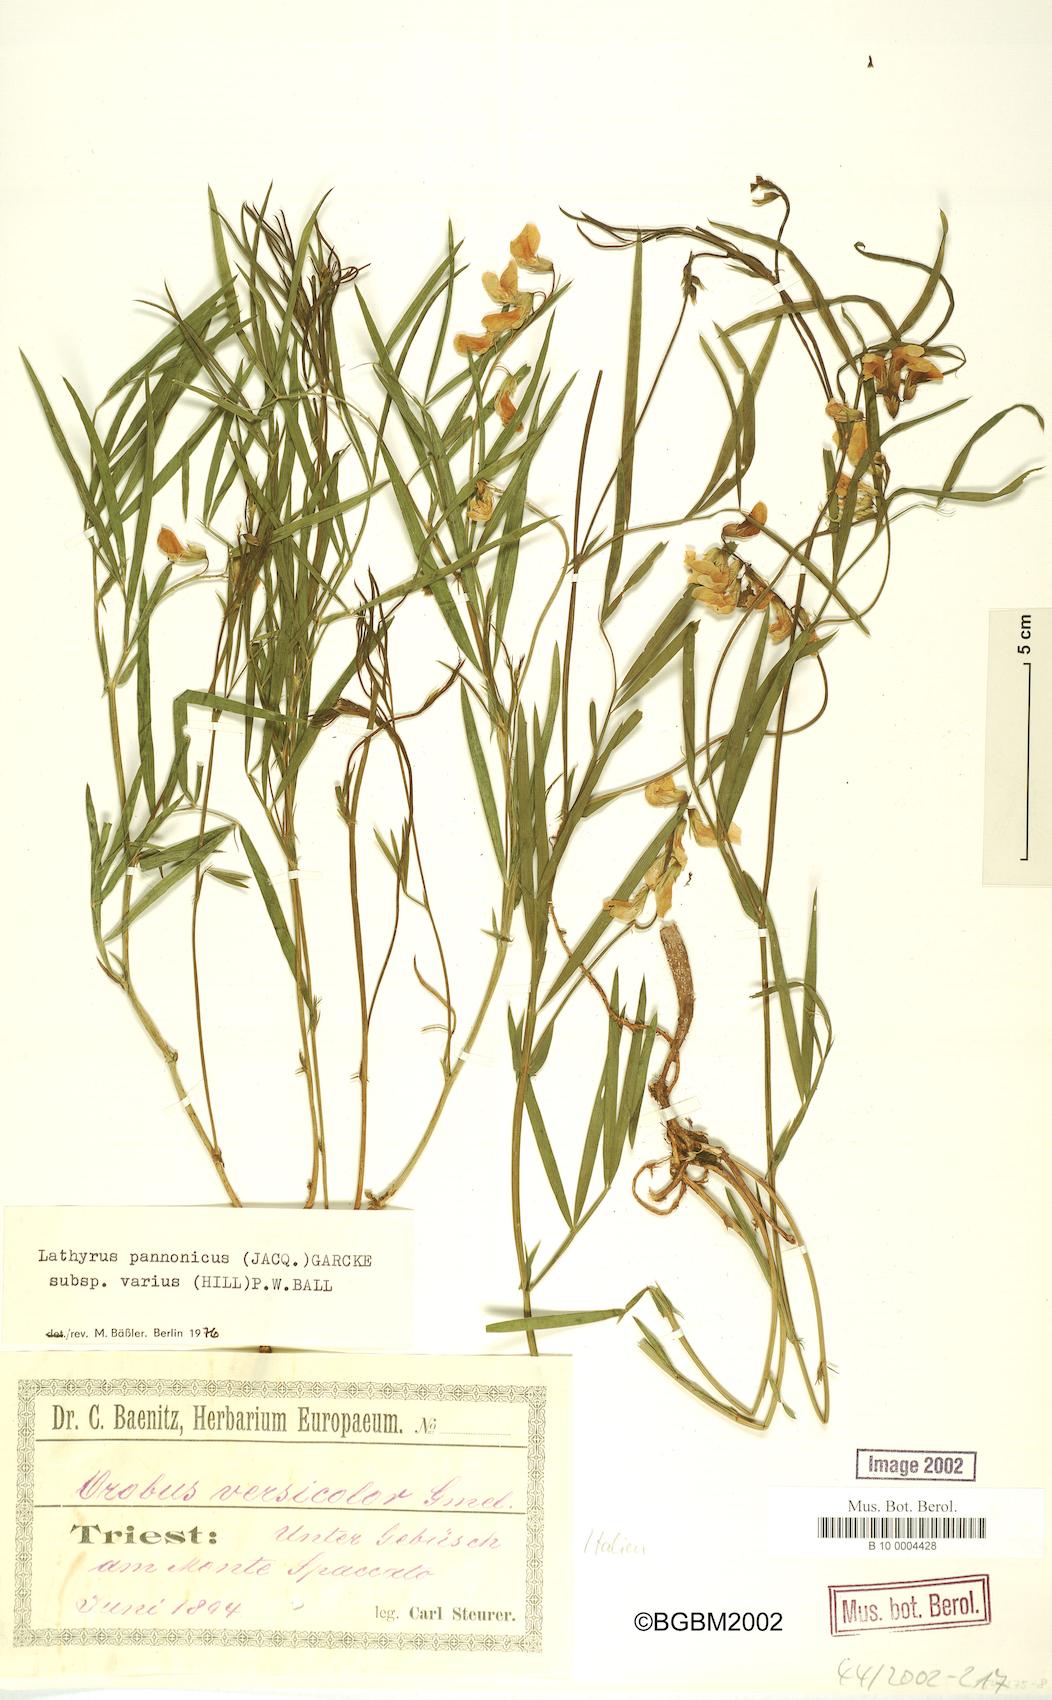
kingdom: Plantae
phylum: Tracheophyta
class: Magnoliopsida
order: Fabales
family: Fabaceae
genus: Lathyrus
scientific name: Lathyrus pannonicus
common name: Pea
